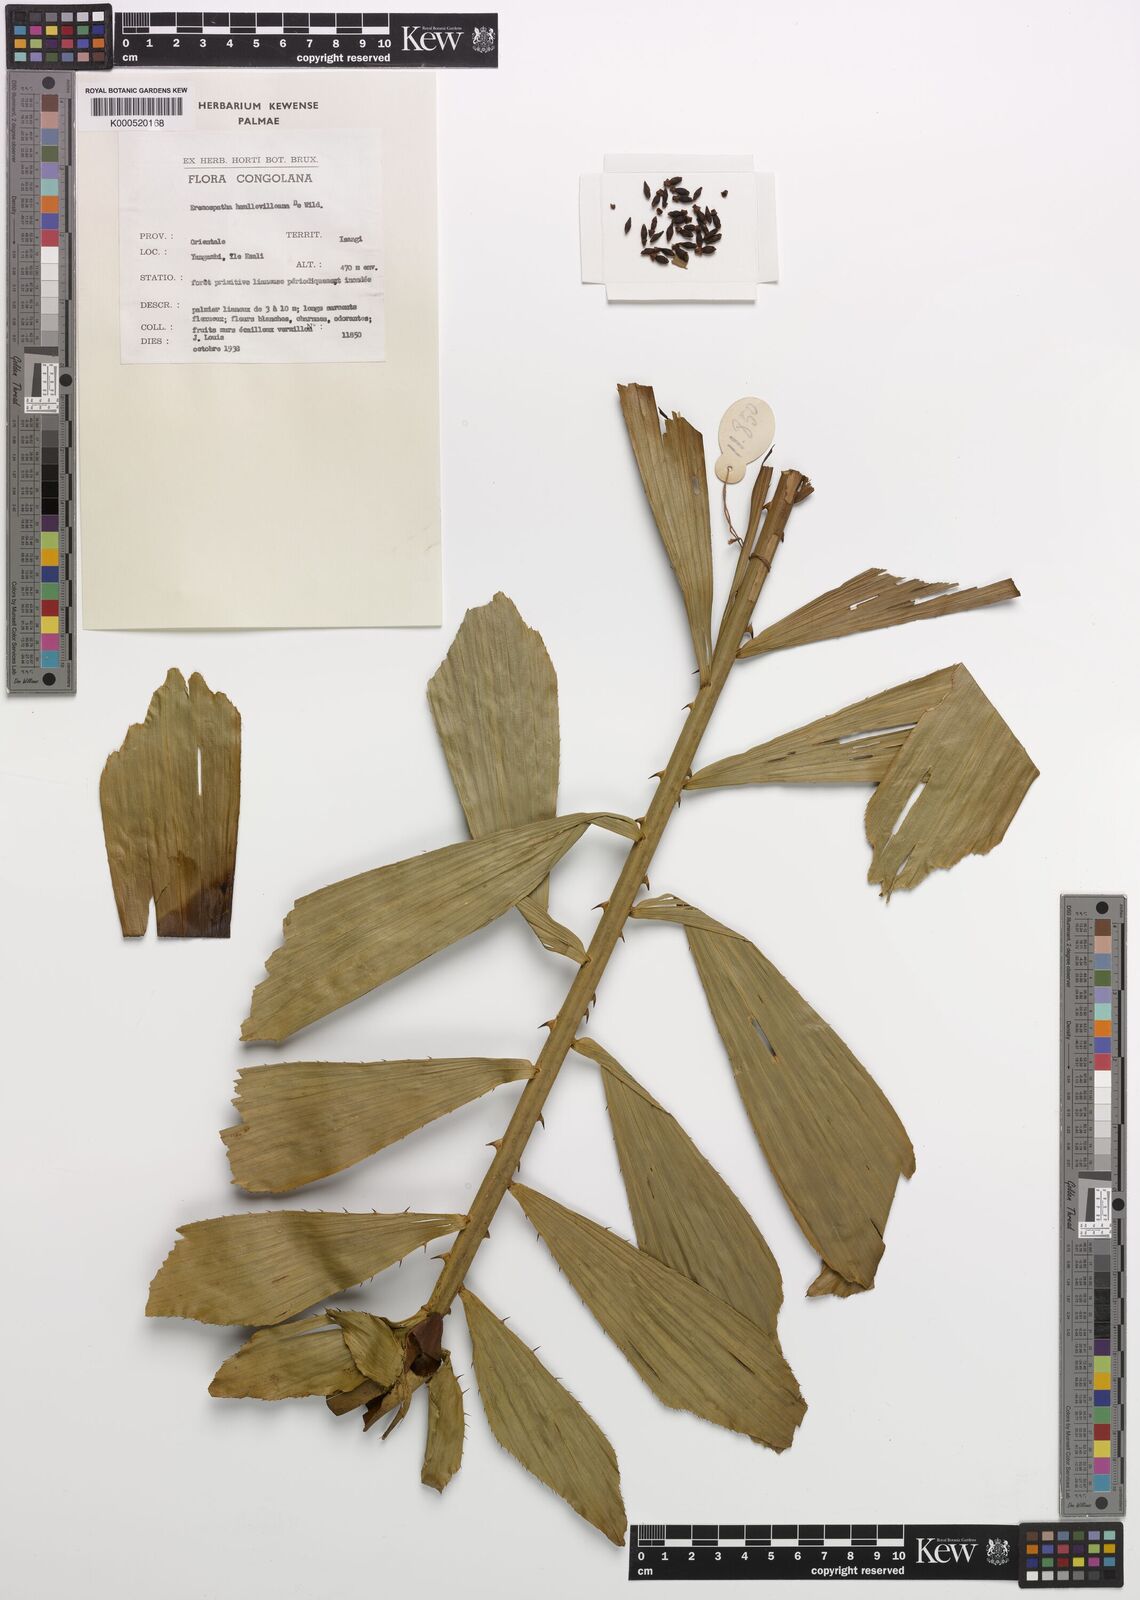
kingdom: Plantae
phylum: Tracheophyta
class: Liliopsida
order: Arecales
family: Arecaceae
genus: Eremospatha
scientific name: Eremospatha haullevilleana
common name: Rattan
